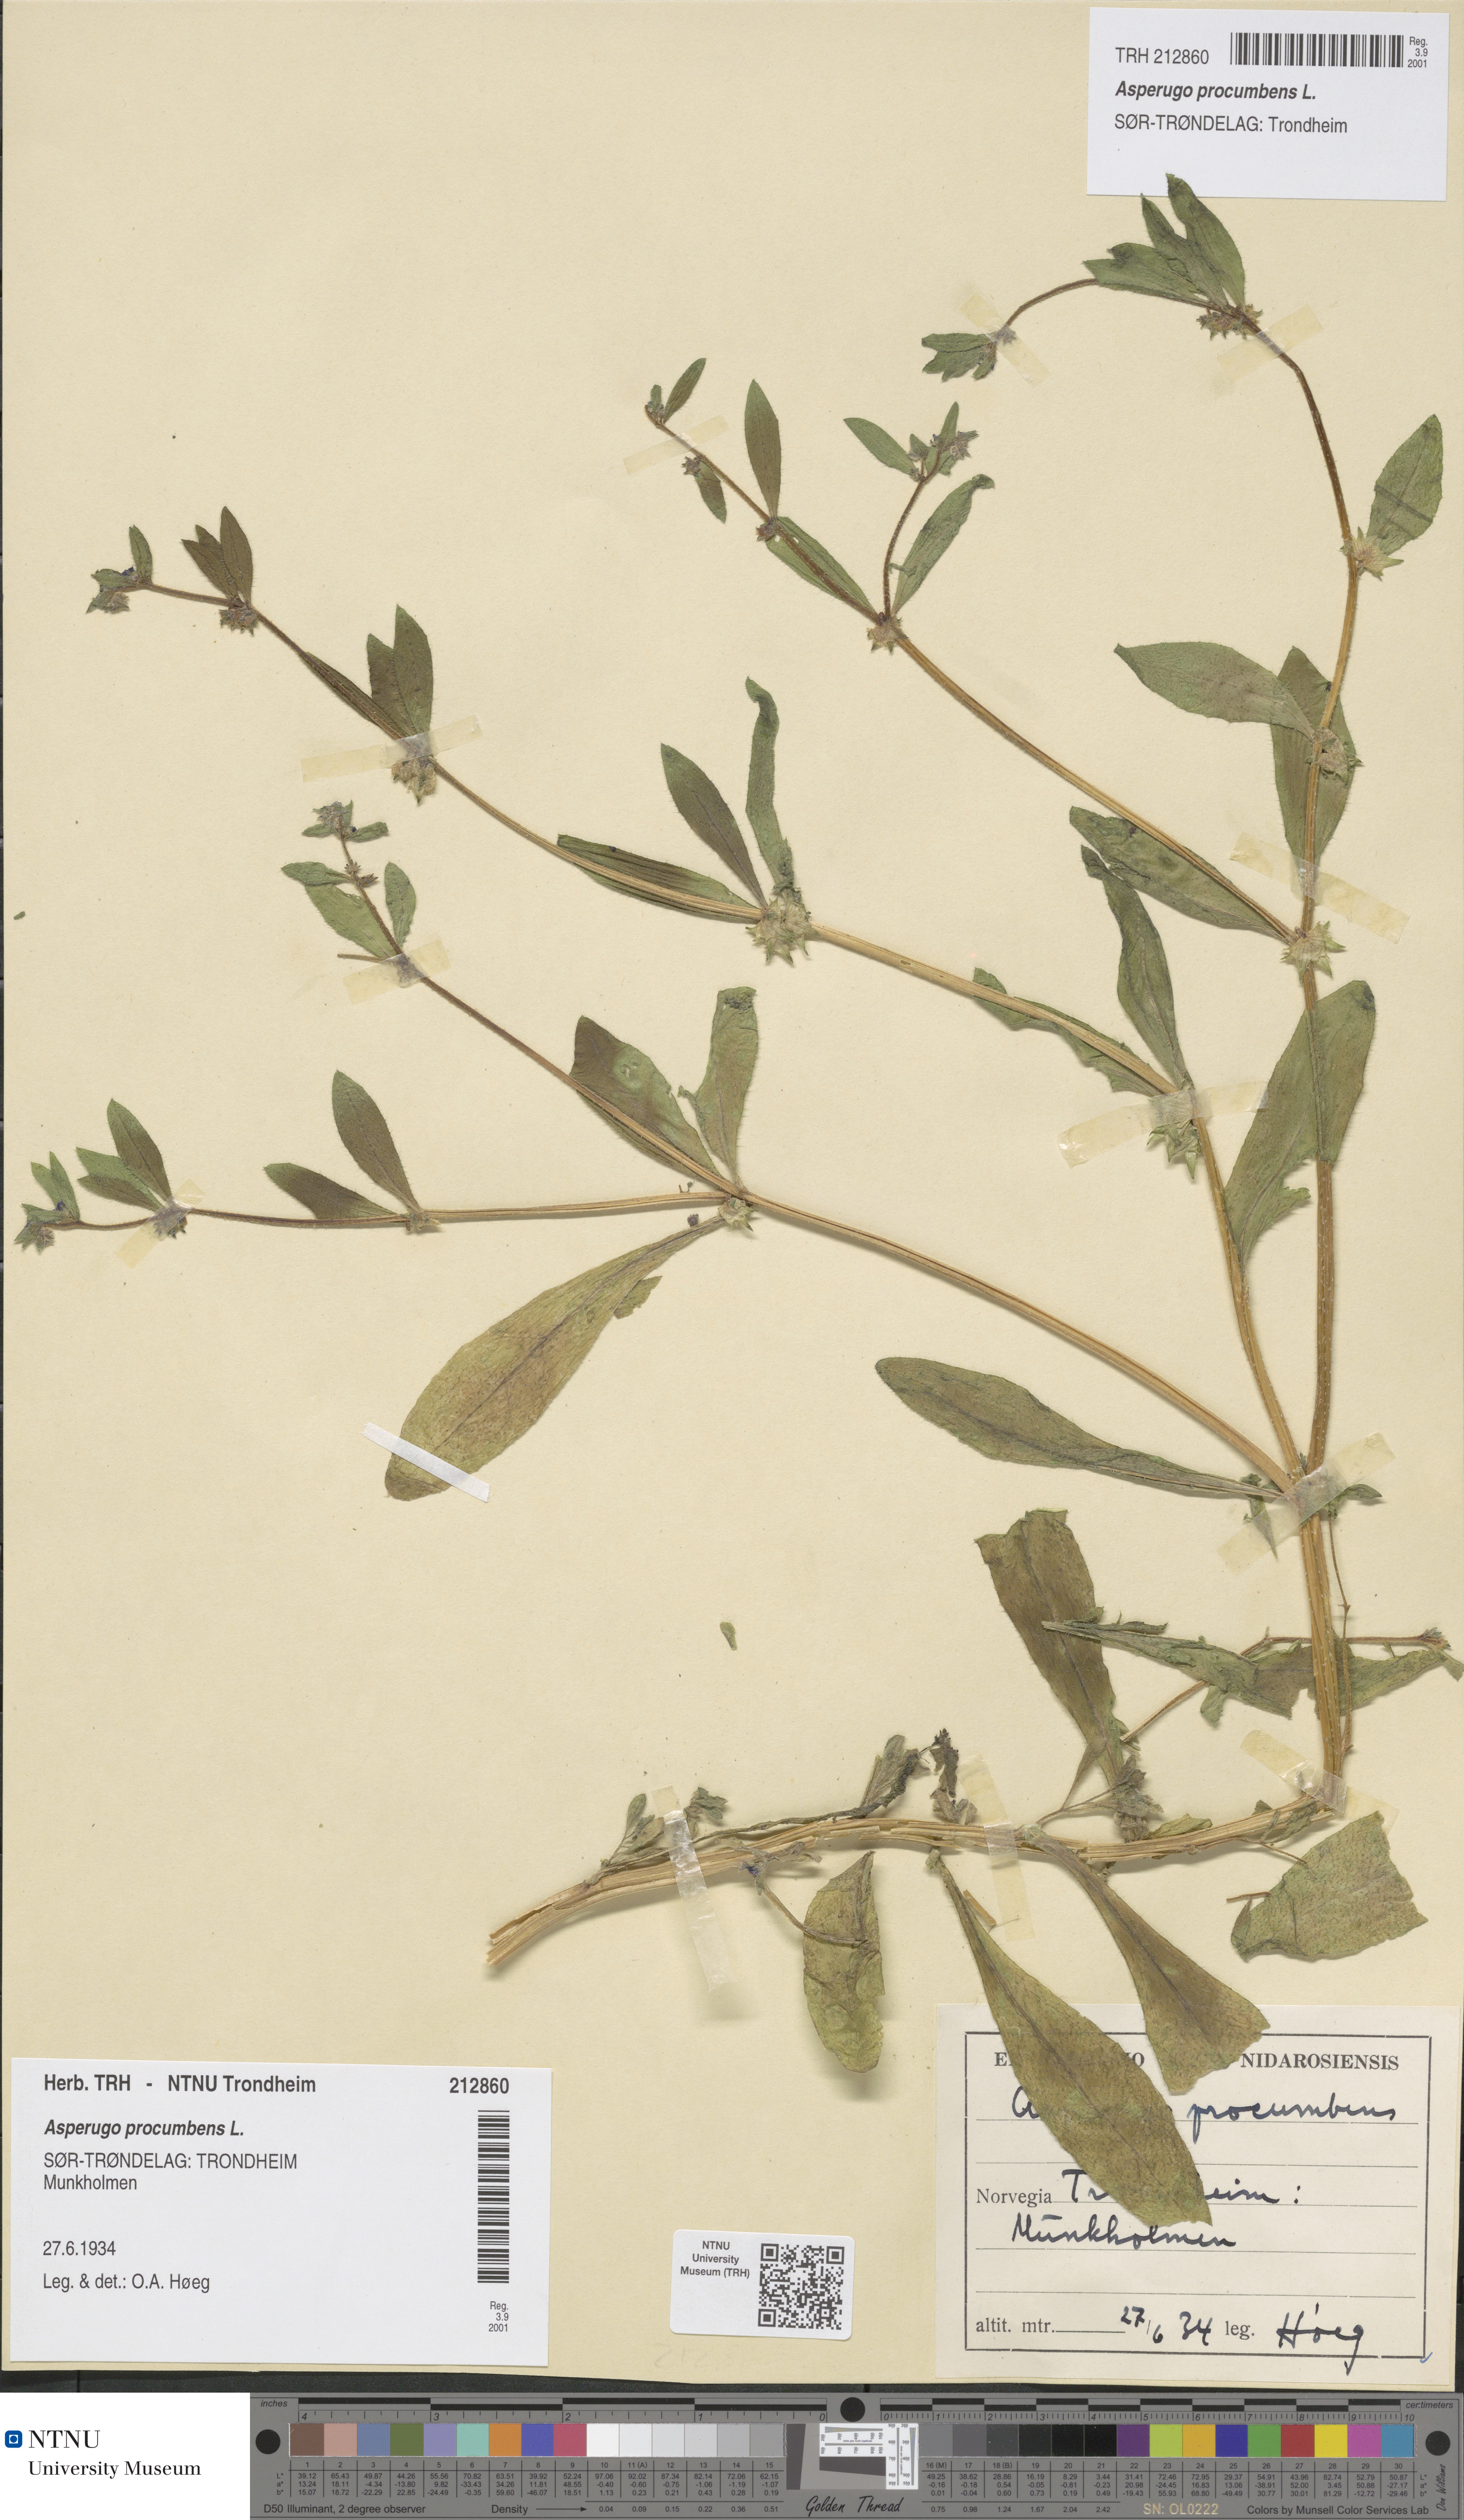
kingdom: Plantae
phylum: Tracheophyta
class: Magnoliopsida
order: Boraginales
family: Boraginaceae
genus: Asperugo
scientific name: Asperugo procumbens
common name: Madwort
